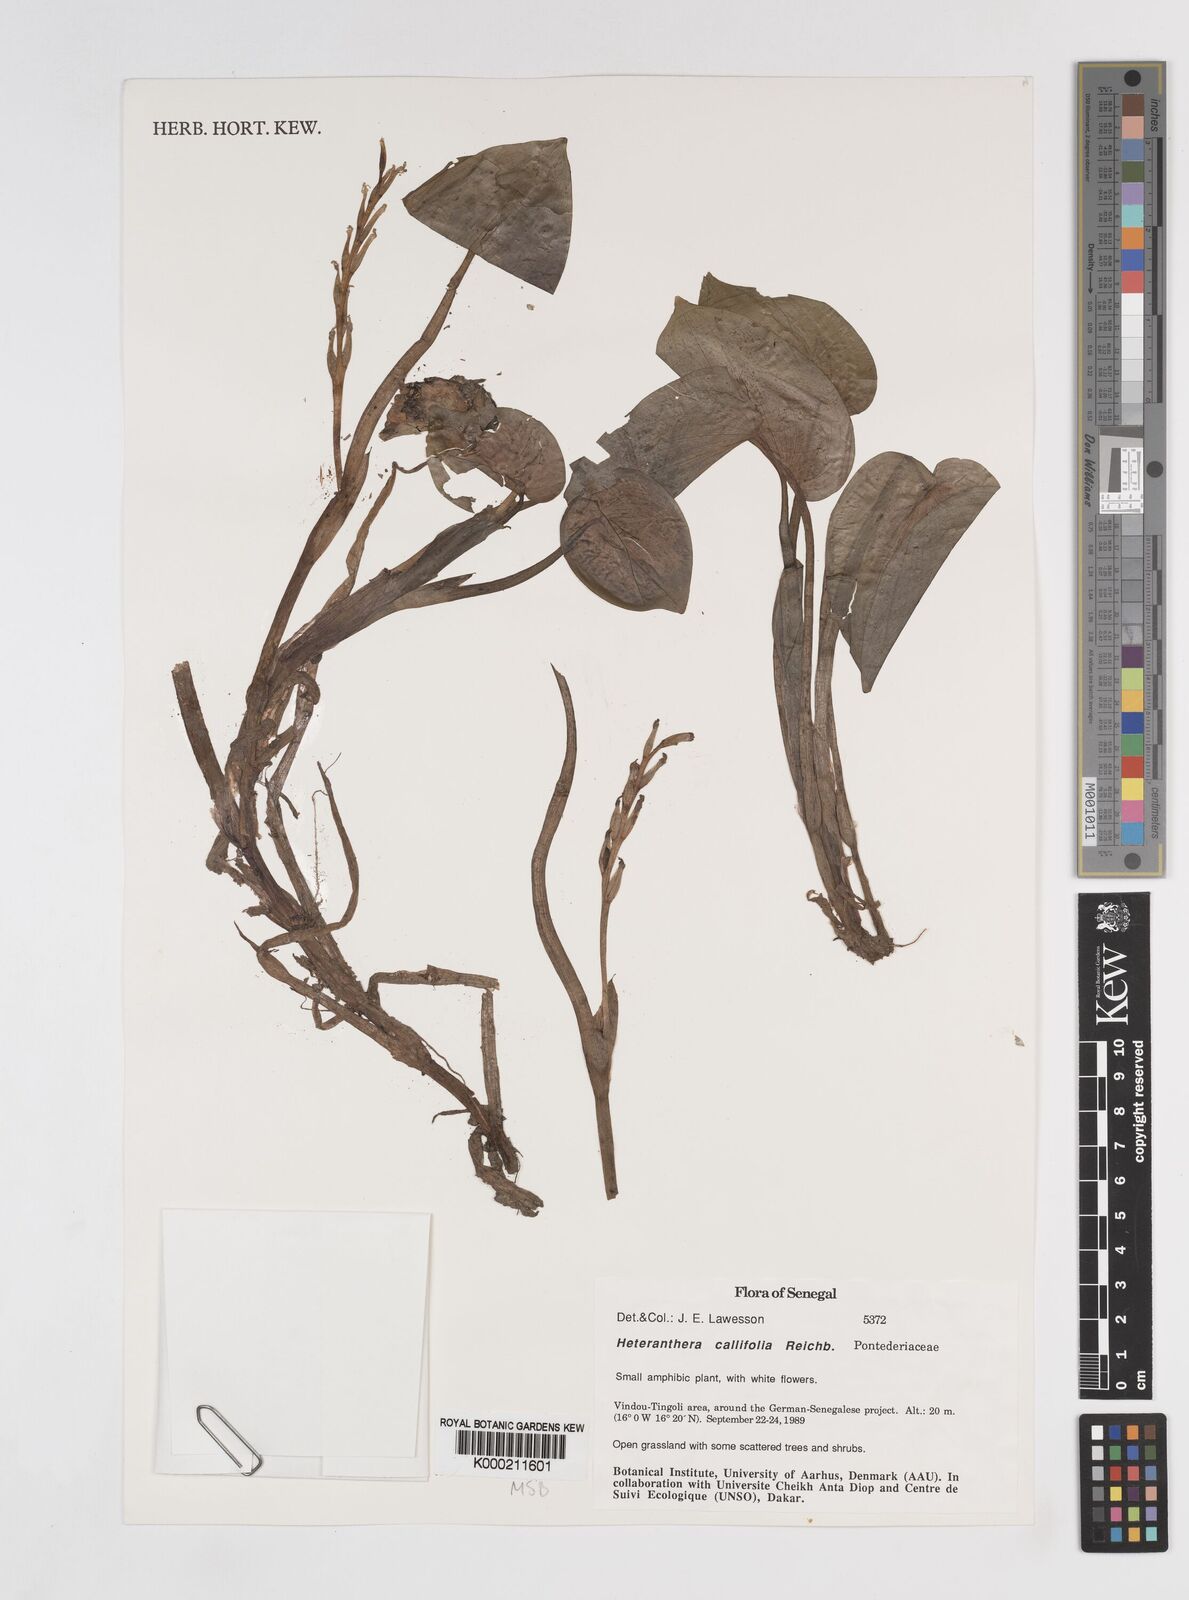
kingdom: Plantae
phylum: Tracheophyta
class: Liliopsida
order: Commelinales
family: Pontederiaceae
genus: Heteranthera
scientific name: Heteranthera callifolia
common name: Mud plantain
